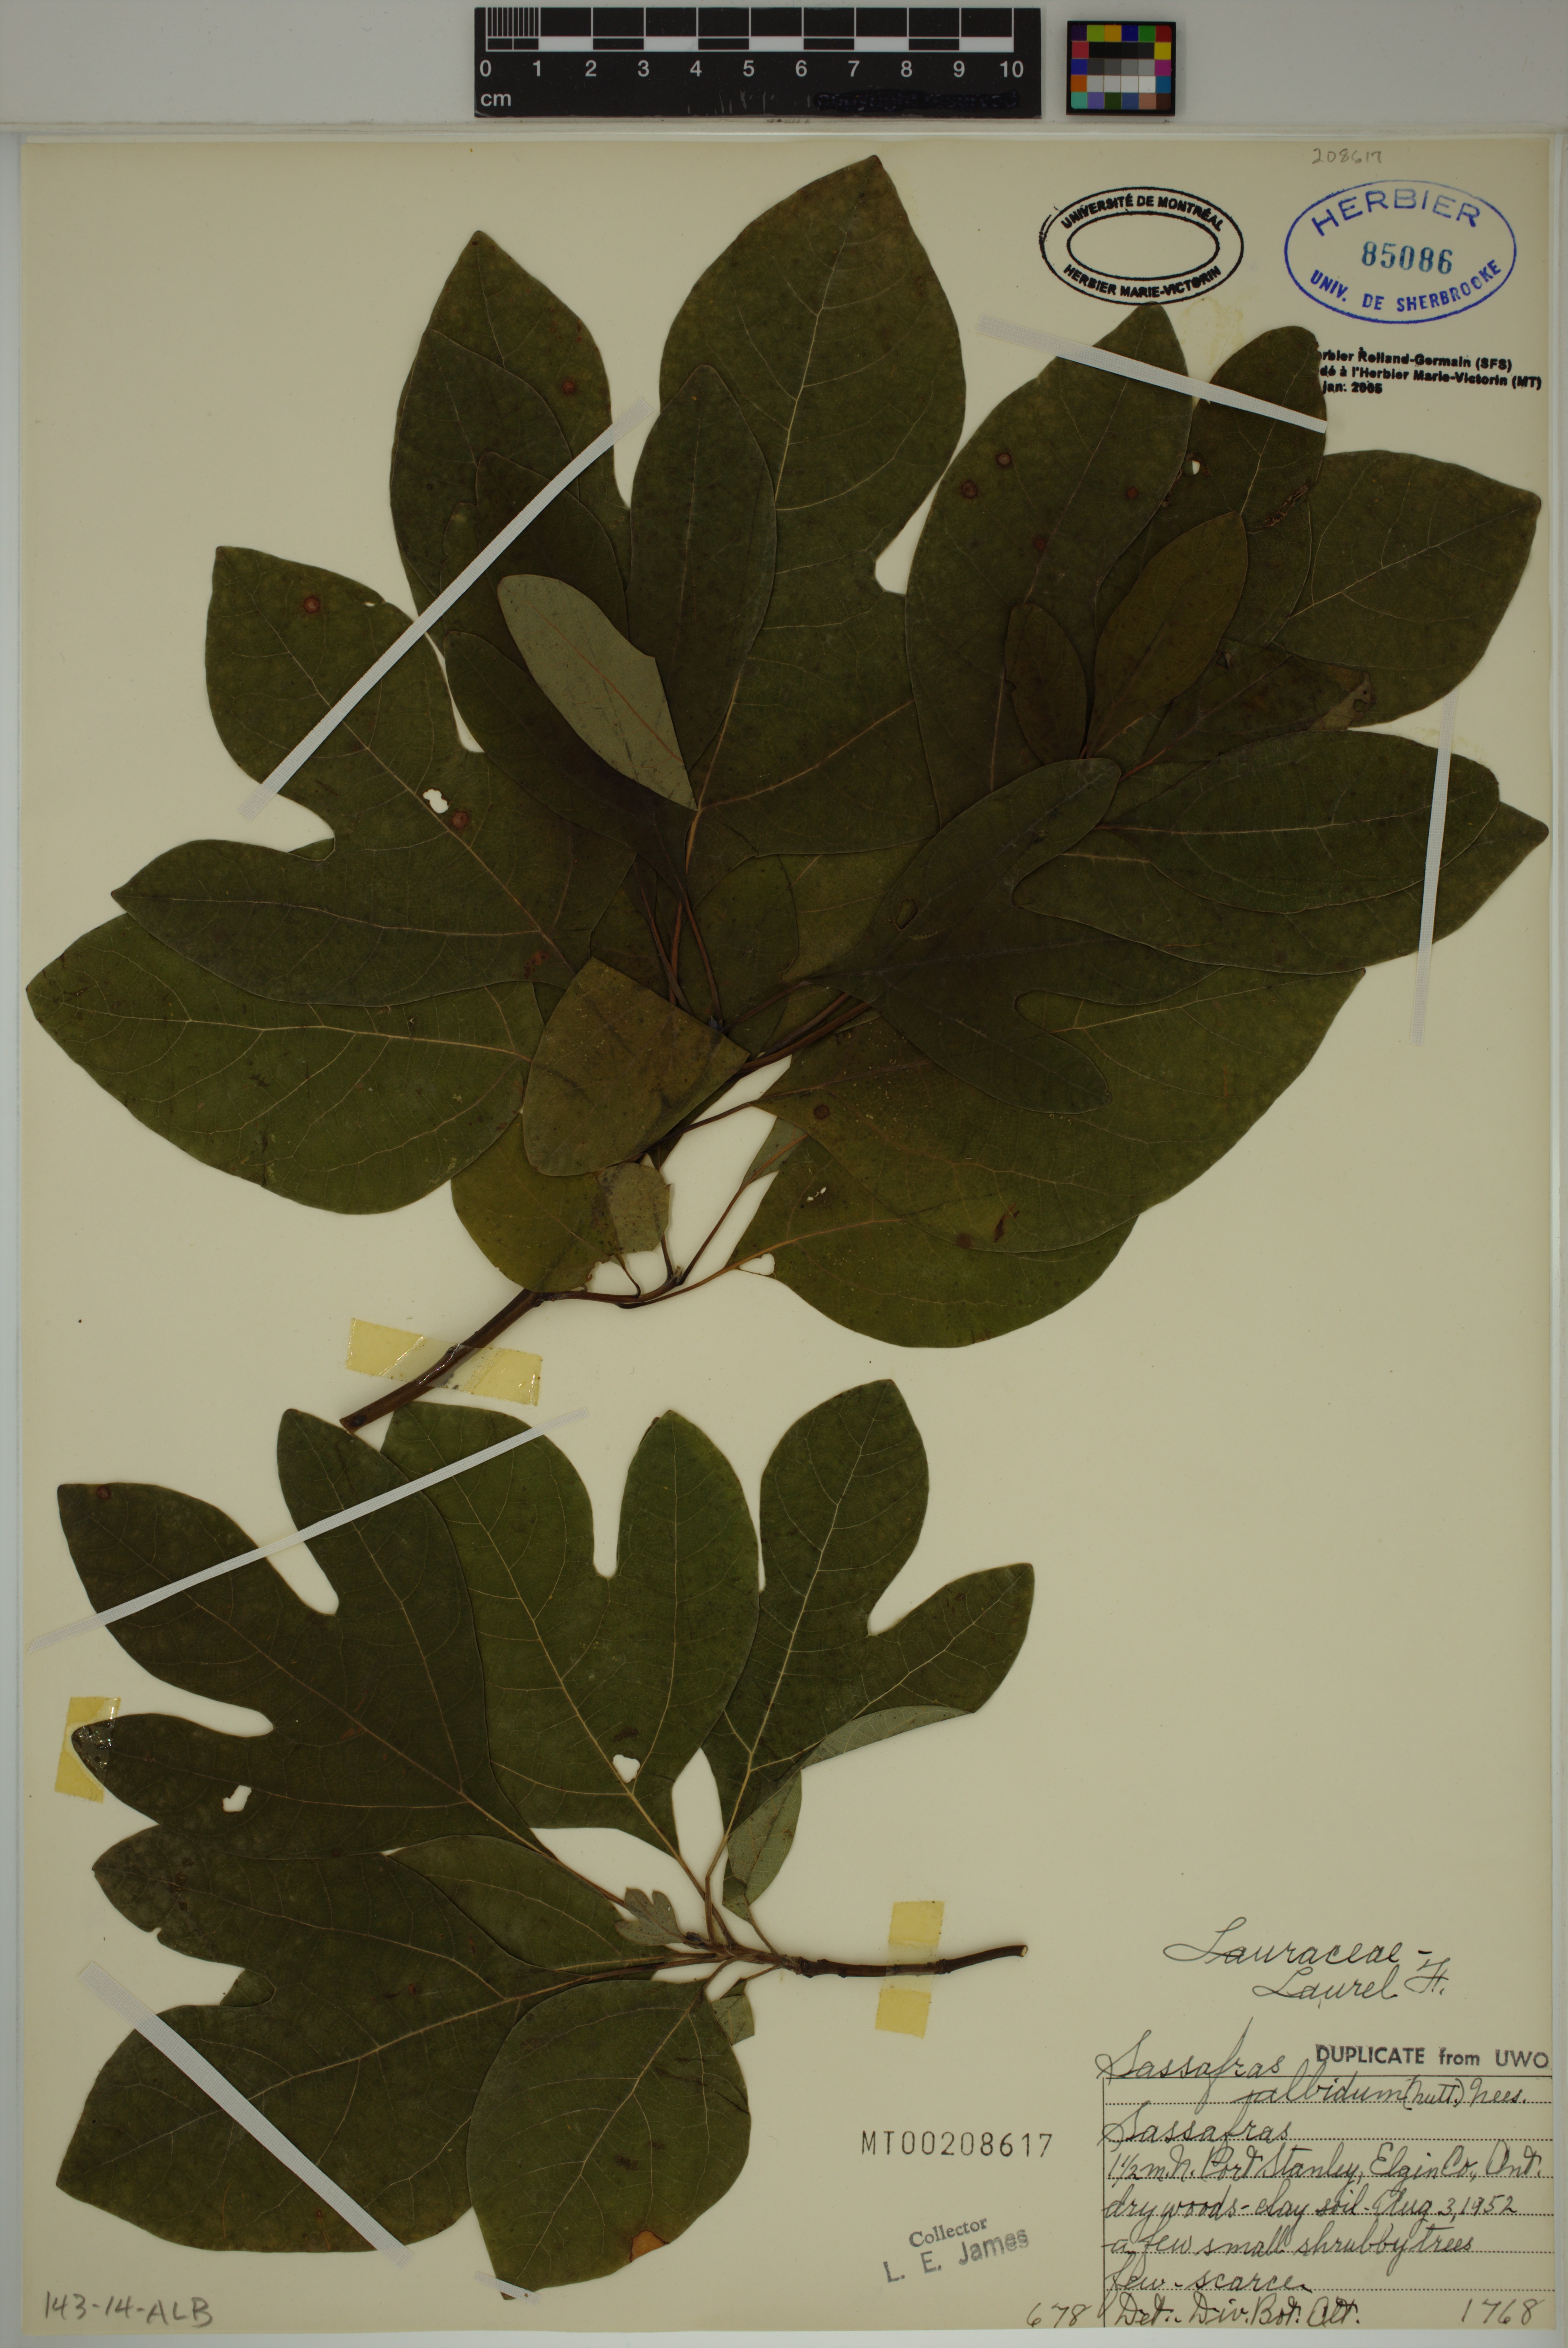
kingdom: Plantae
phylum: Tracheophyta
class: Magnoliopsida
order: Laurales
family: Lauraceae
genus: Sassafras
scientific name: Sassafras albidum
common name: Sassafras
